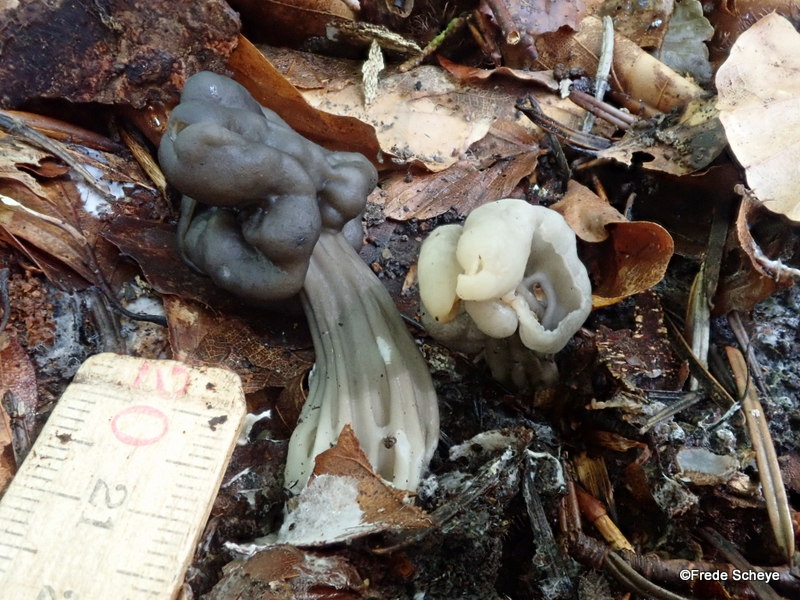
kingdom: Fungi
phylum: Ascomycota
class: Pezizomycetes
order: Pezizales
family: Helvellaceae
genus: Helvella
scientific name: Helvella lacunosa
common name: grubet foldhat
